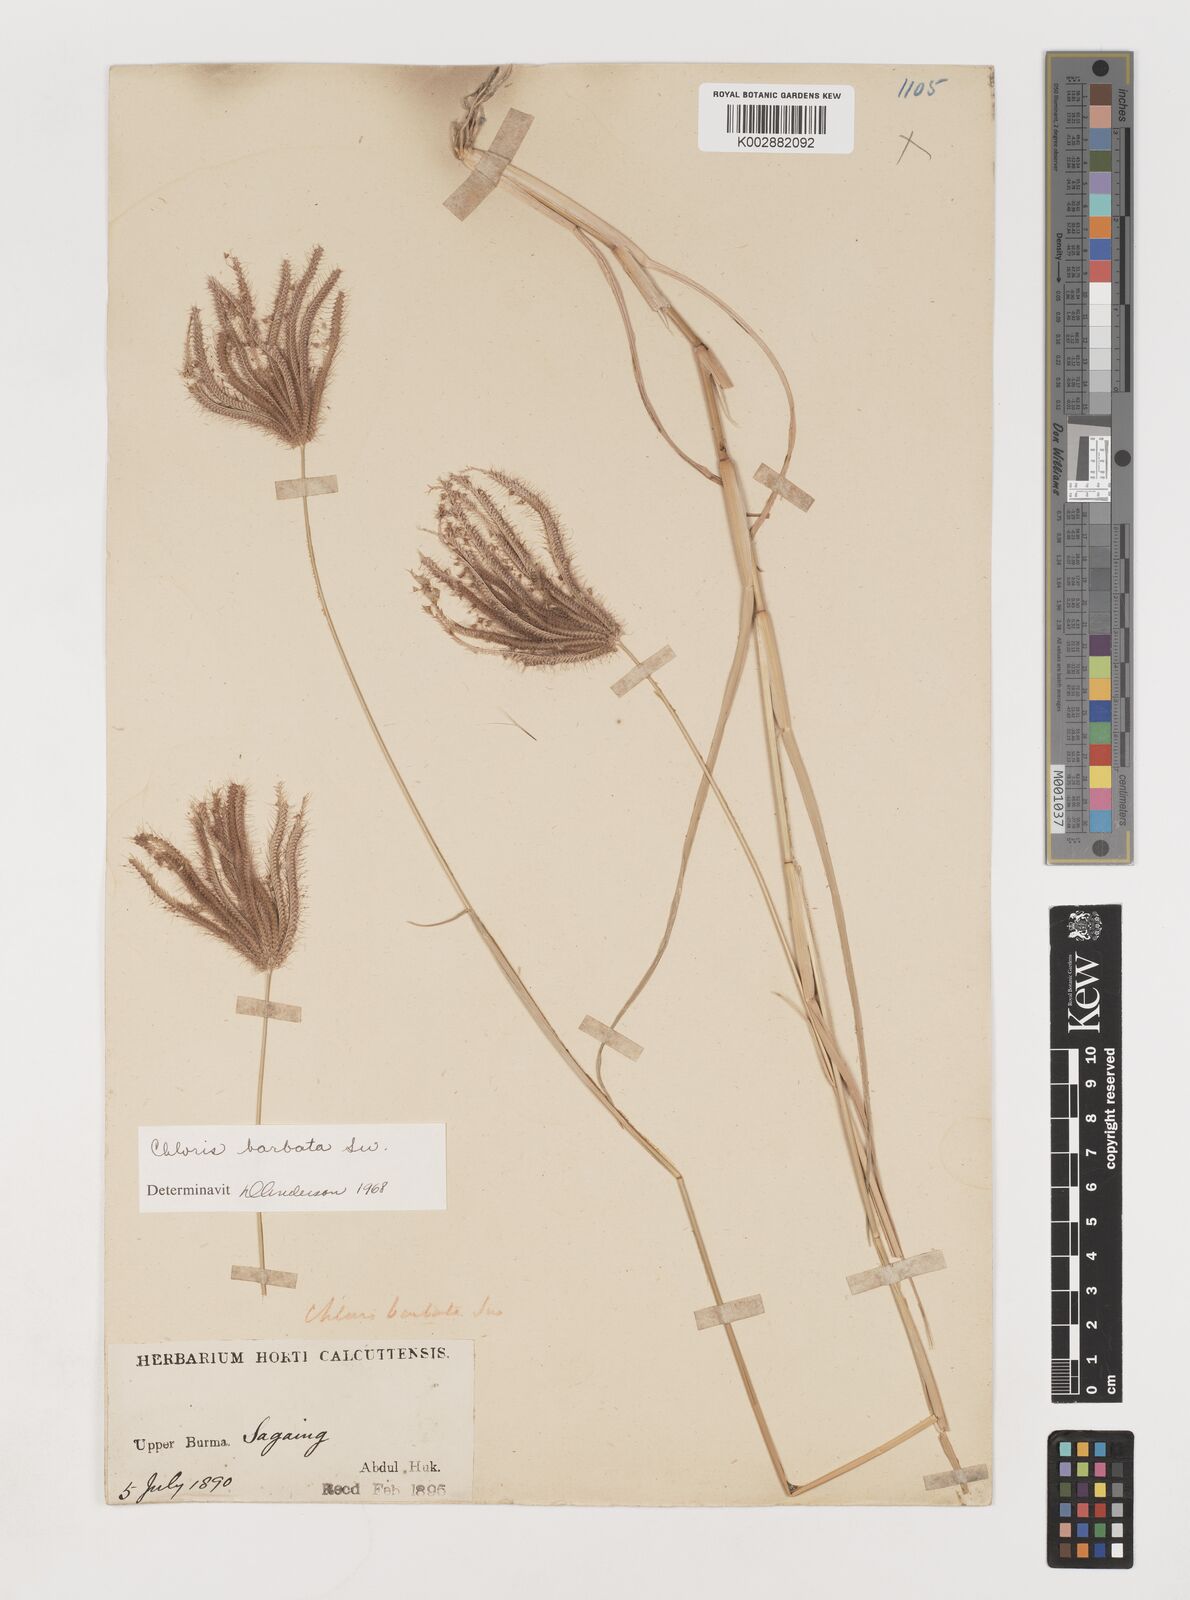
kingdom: Plantae
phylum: Tracheophyta
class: Liliopsida
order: Poales
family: Poaceae
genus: Chloris
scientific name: Chloris barbata
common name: Swollen fingergrass
